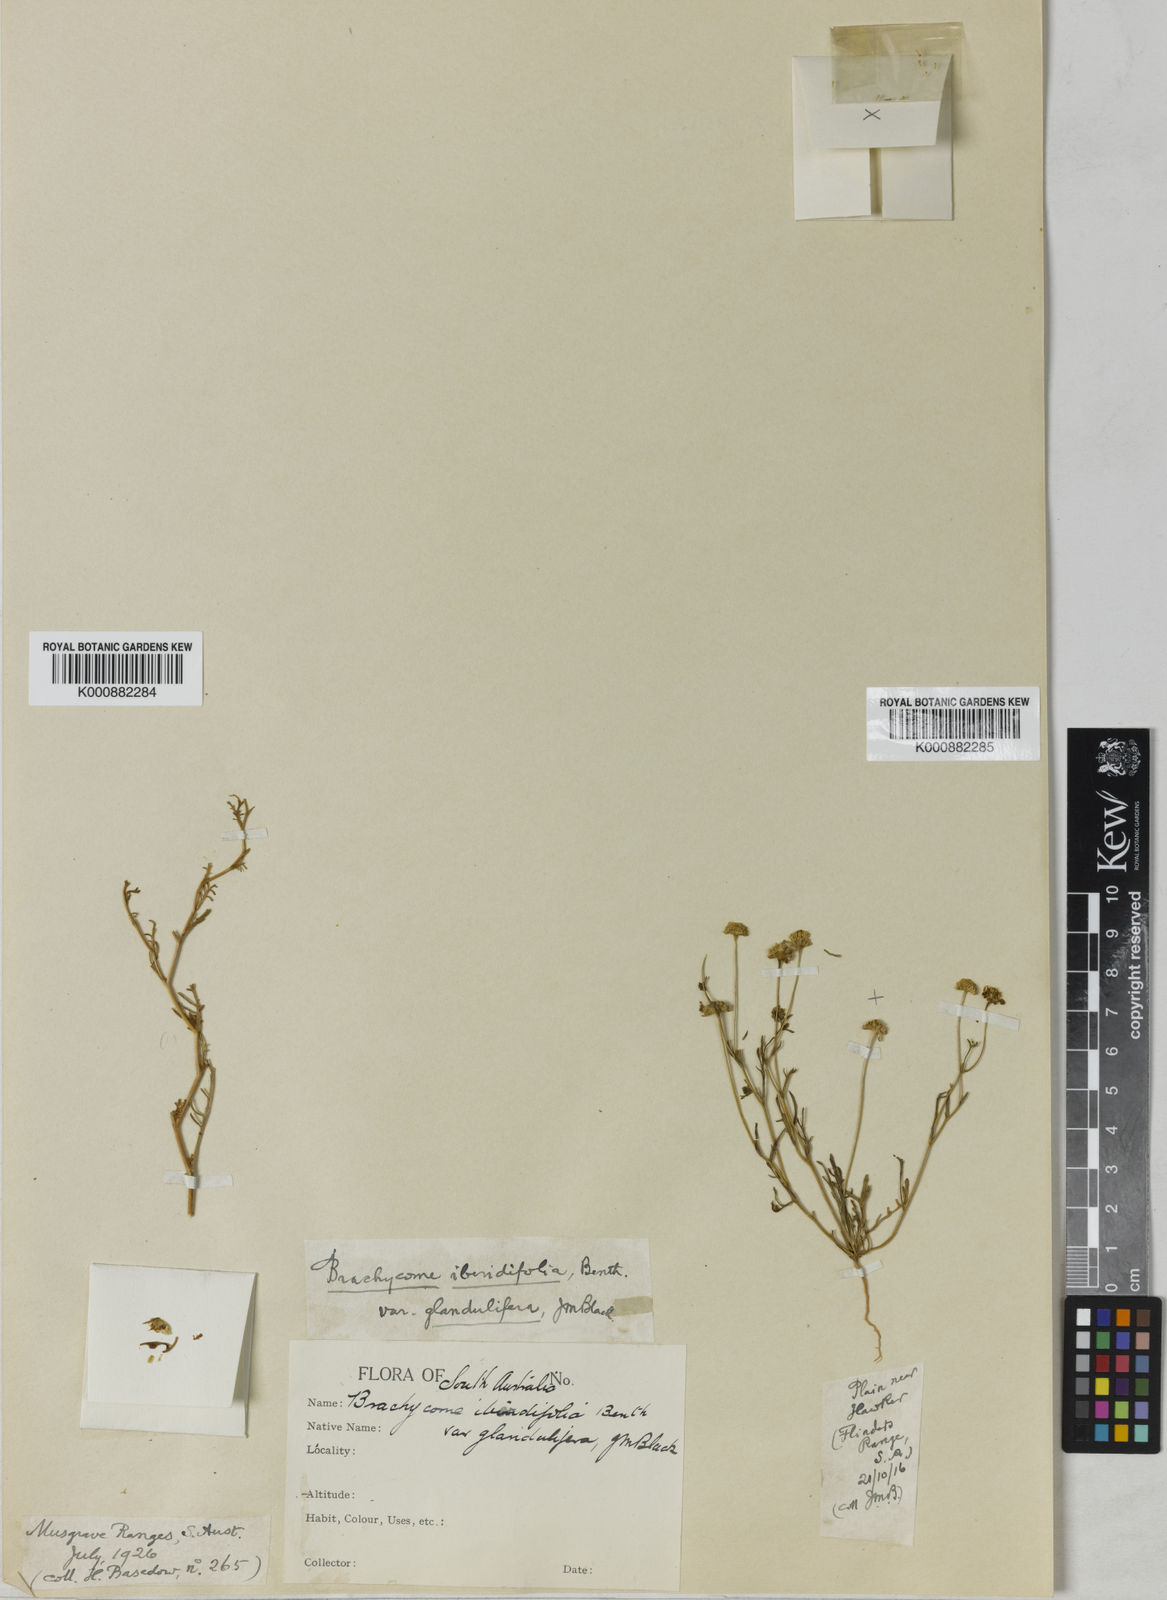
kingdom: Plantae
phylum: Tracheophyta
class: Magnoliopsida
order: Asterales
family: Asteraceae
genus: Brachyscome
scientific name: Brachyscome iberidifolia
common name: Swan river daisy
